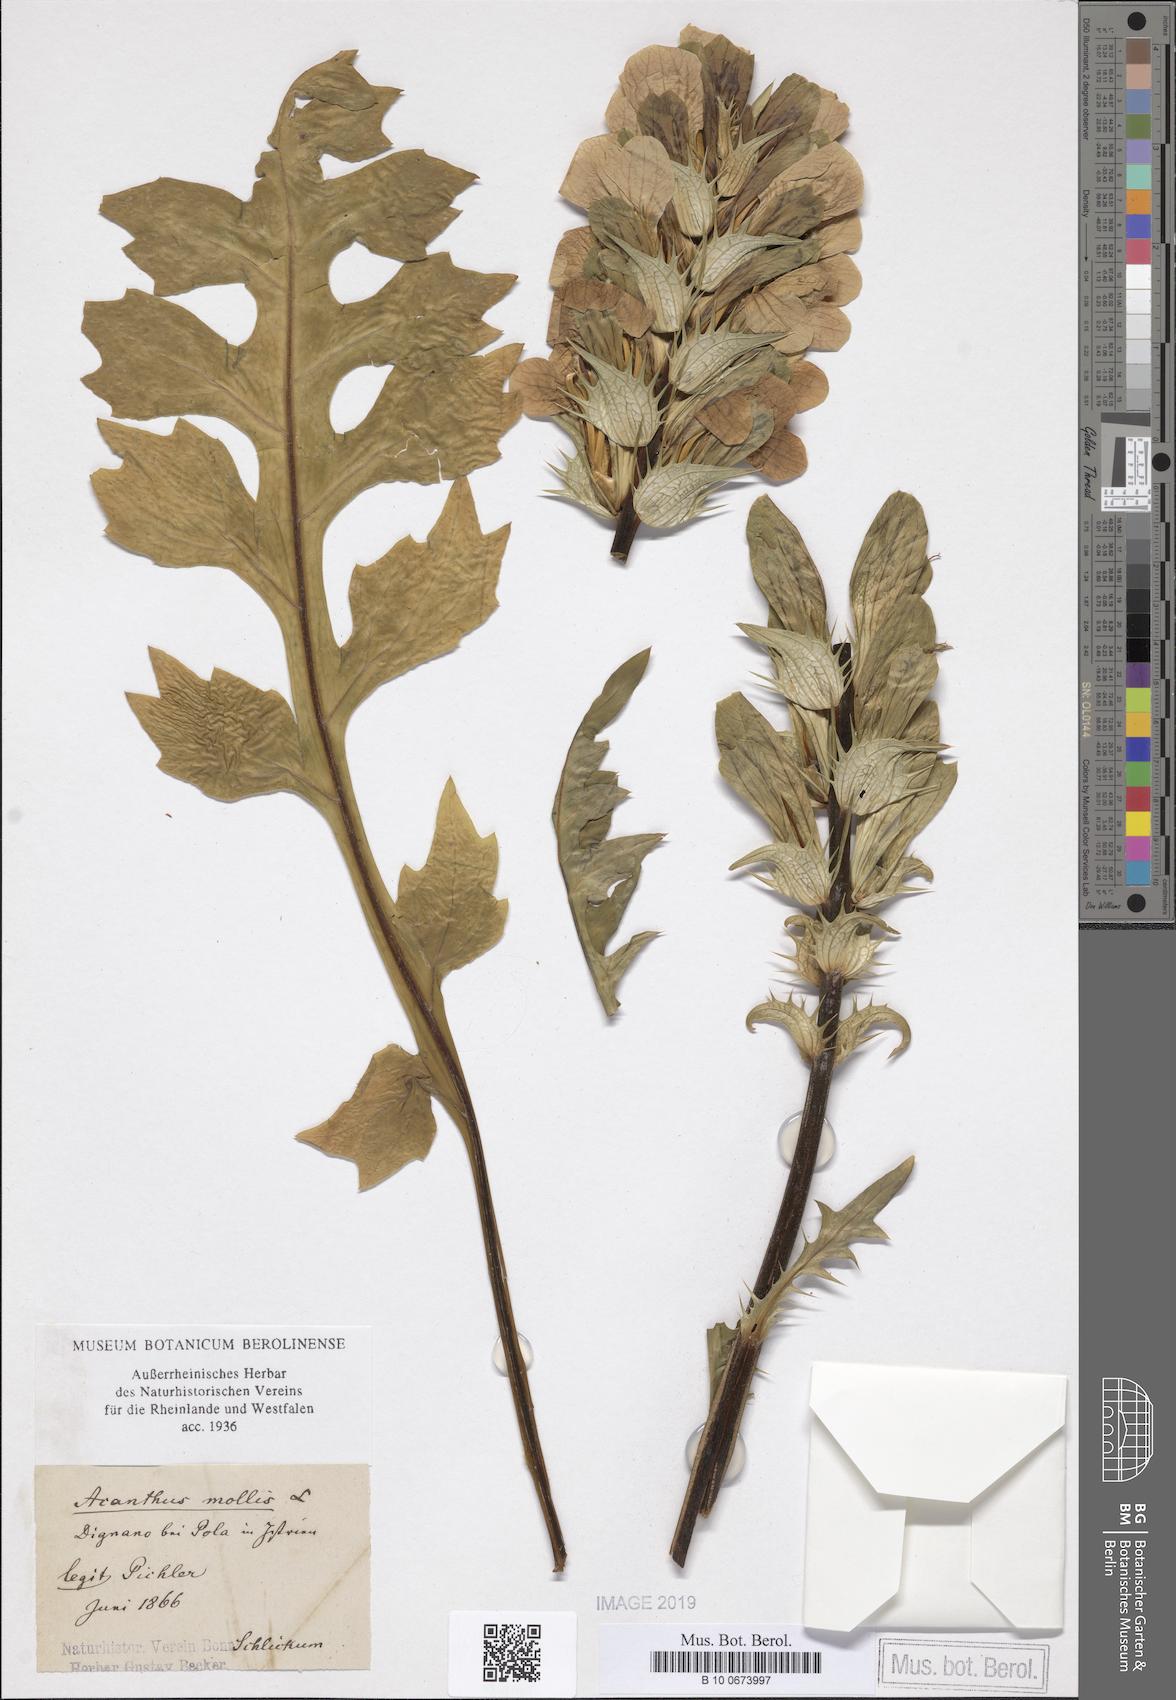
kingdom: Plantae
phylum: Tracheophyta
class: Magnoliopsida
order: Lamiales
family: Acanthaceae
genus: Acanthus
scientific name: Acanthus mollis
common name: Bear's-breech
